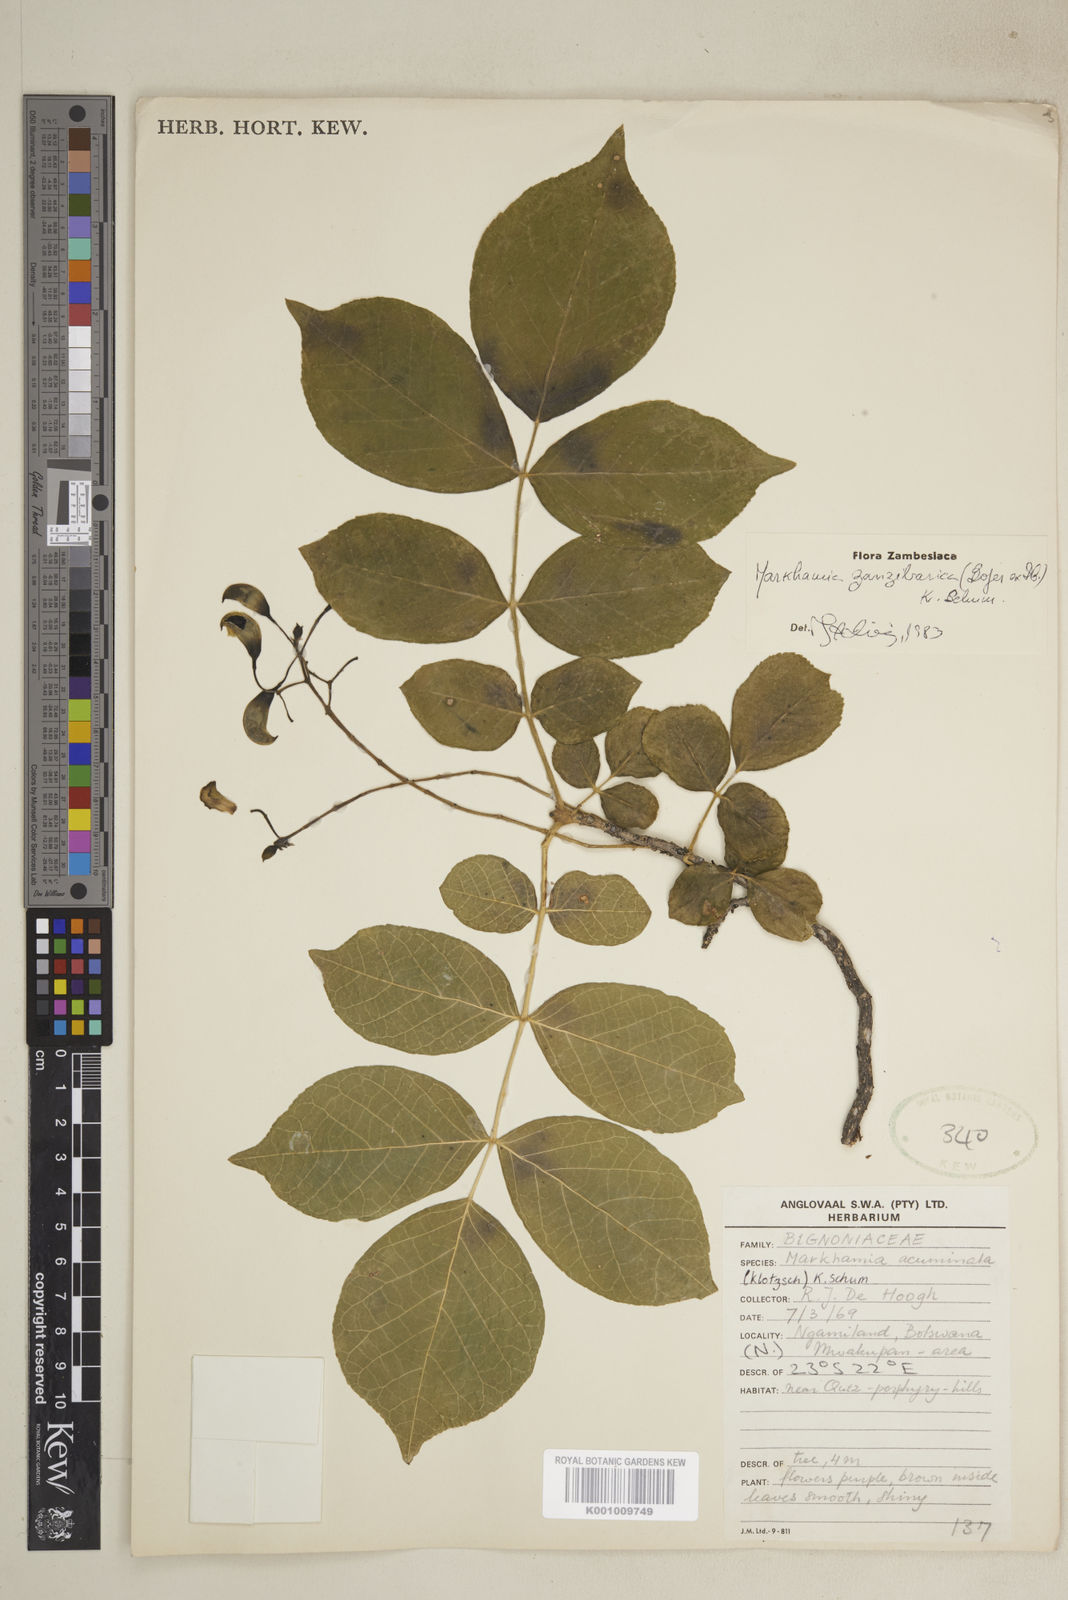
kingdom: Plantae
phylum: Tracheophyta
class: Magnoliopsida
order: Lamiales
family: Bignoniaceae
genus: Markhamia
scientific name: Markhamia zanzibarica
